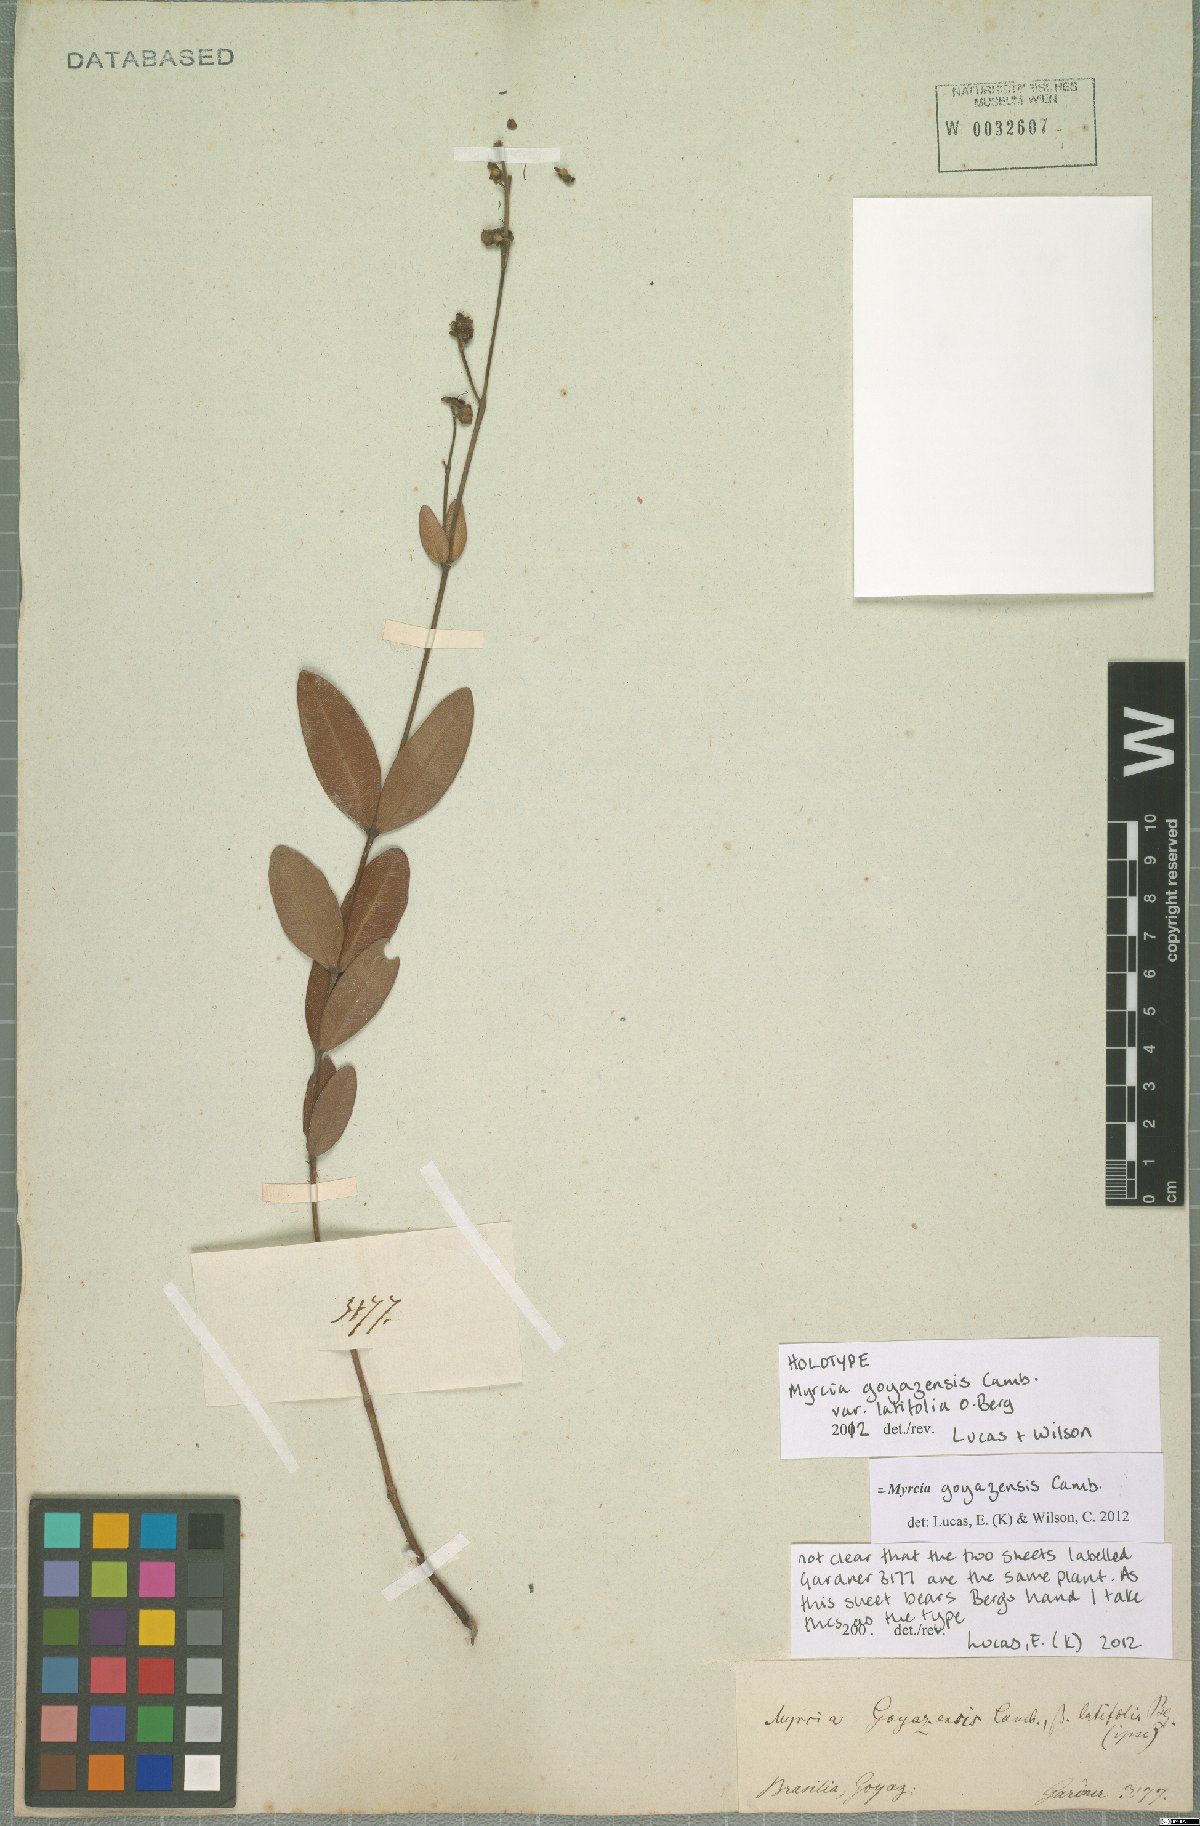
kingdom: Plantae
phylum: Tracheophyta
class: Magnoliopsida
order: Myrtales
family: Myrtaceae
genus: Myrcia
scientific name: Myrcia goyazensis
